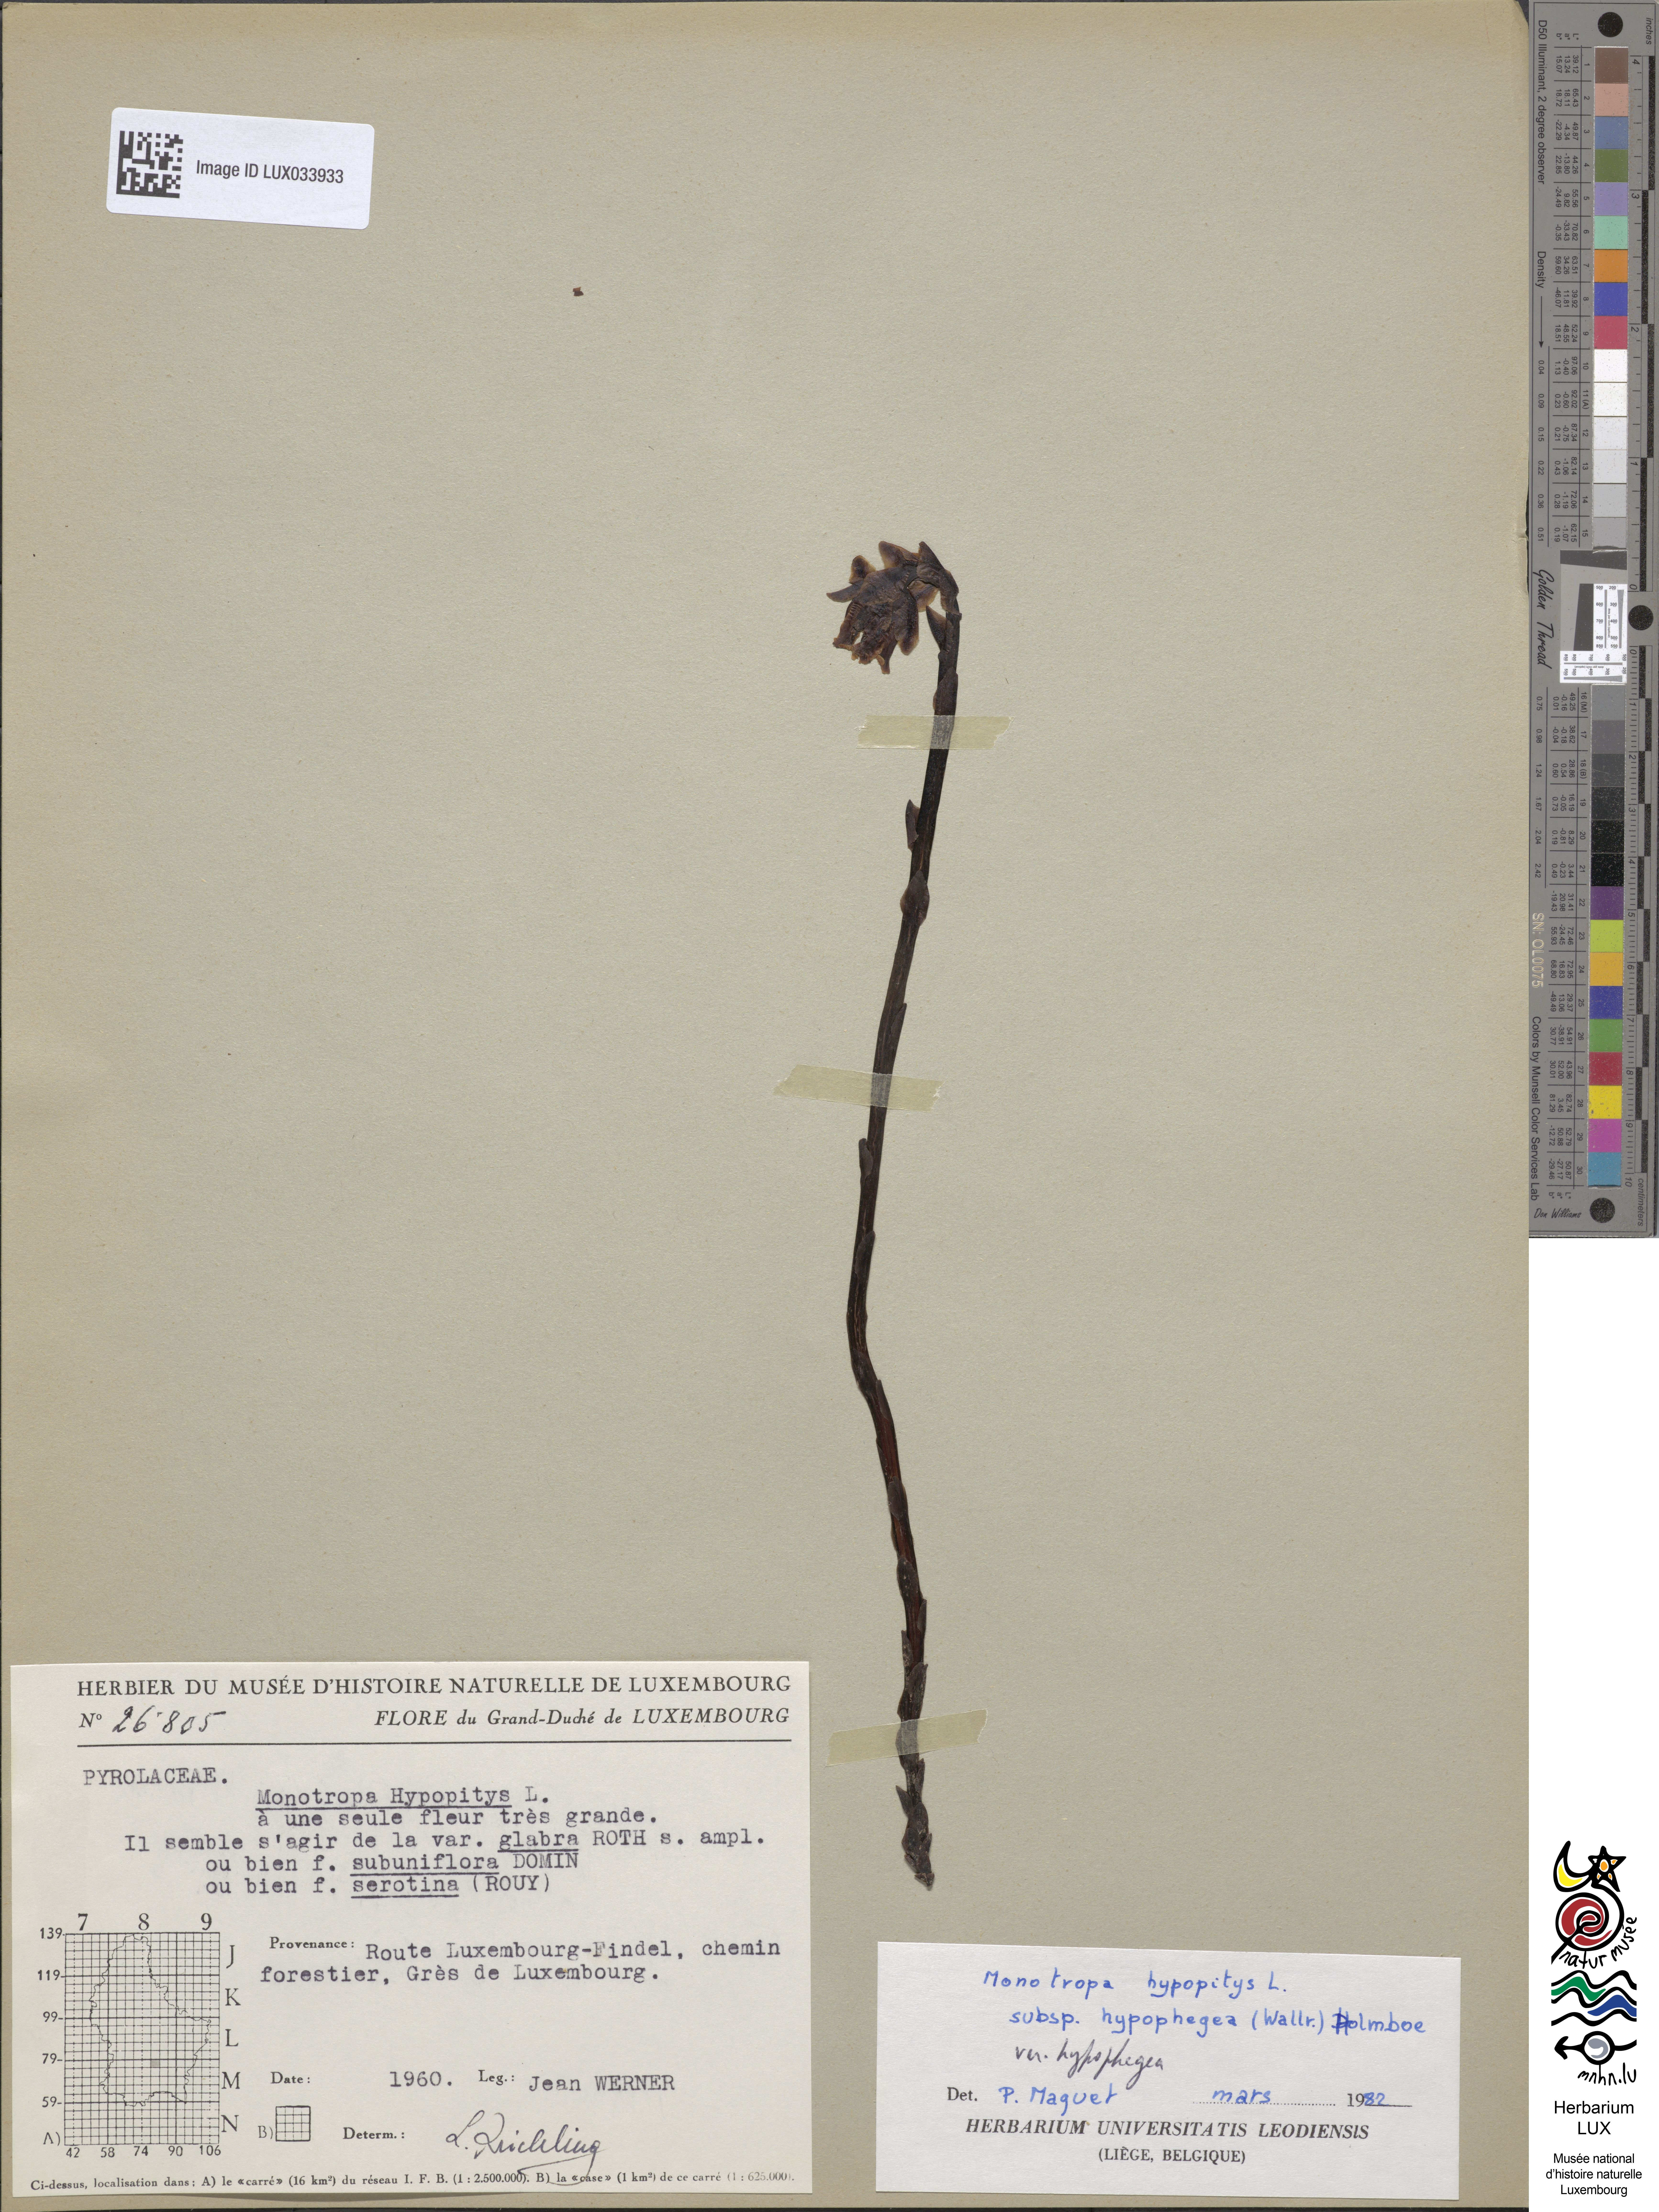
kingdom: Plantae
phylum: Tracheophyta
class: Magnoliopsida
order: Ericales
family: Ericaceae
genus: Hypopitys
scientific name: Hypopitys monotropa
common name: Yellow bird's-nest
